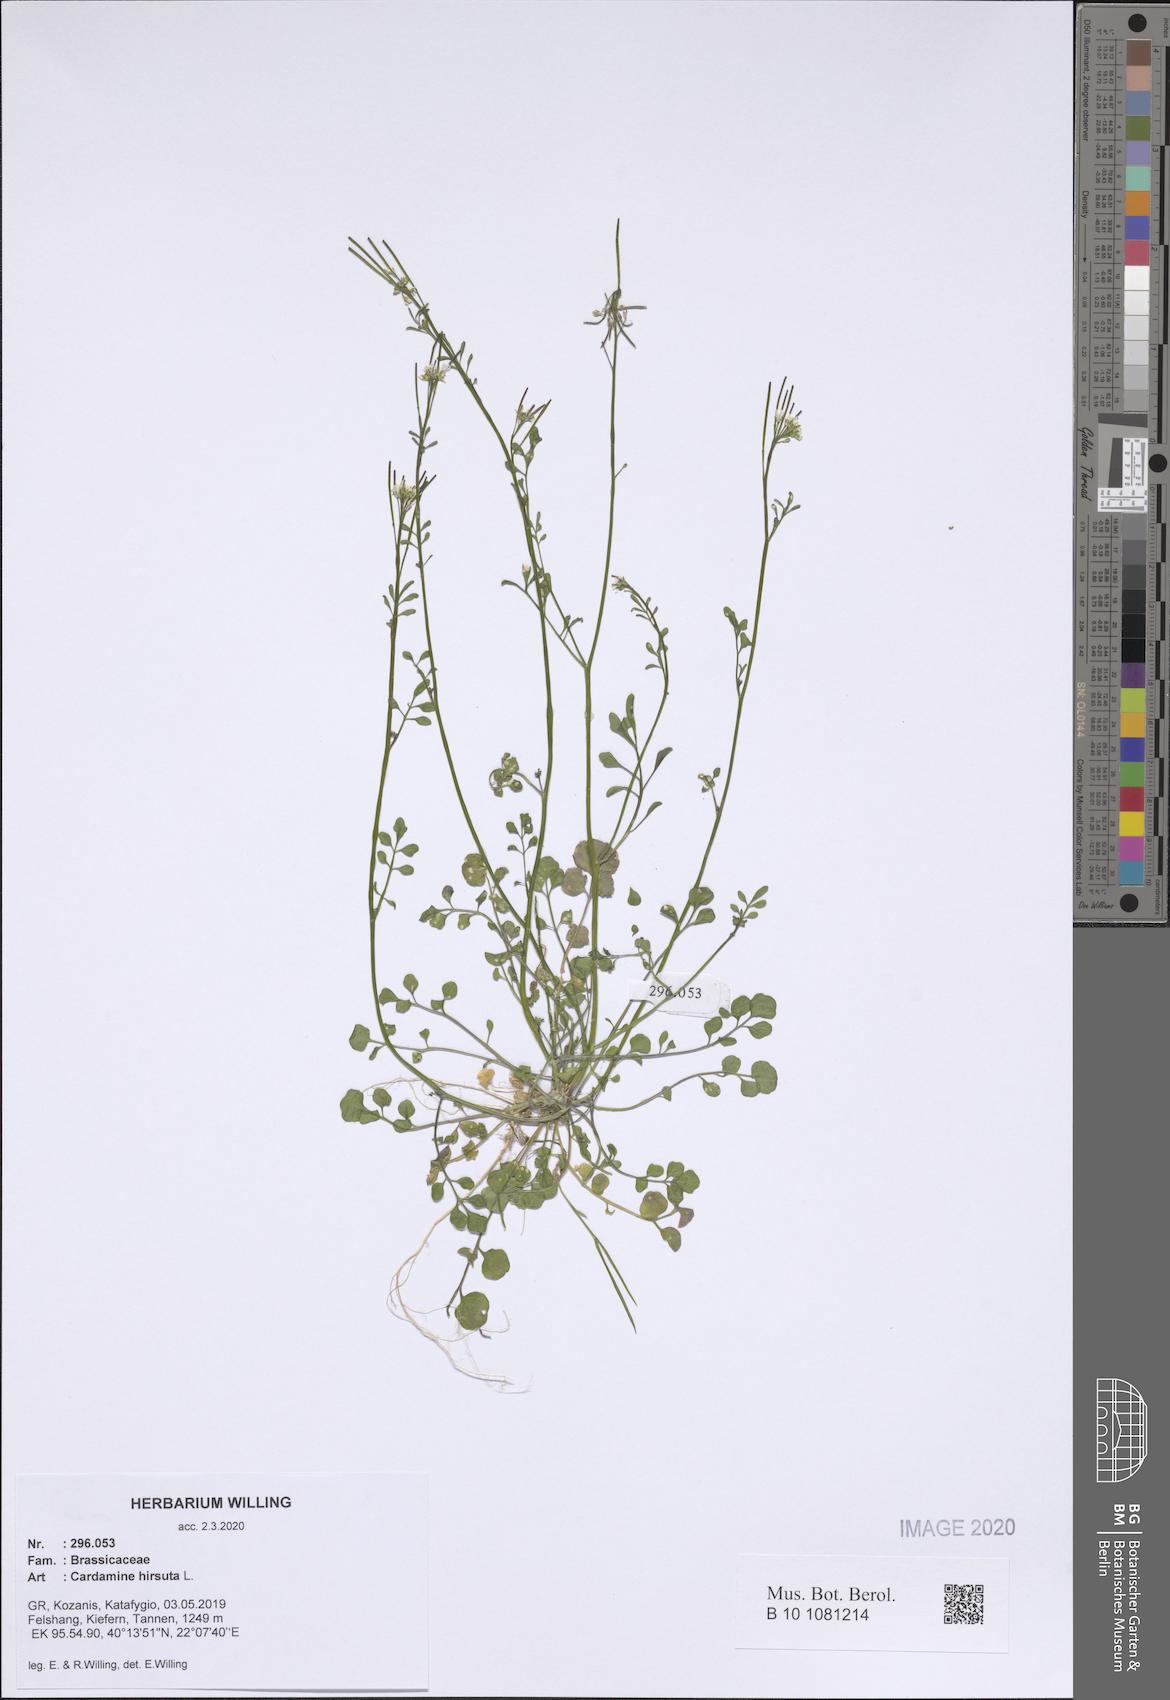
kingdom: Plantae
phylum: Tracheophyta
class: Magnoliopsida
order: Brassicales
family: Brassicaceae
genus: Cardamine
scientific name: Cardamine hirsuta
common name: Hairy bittercress
